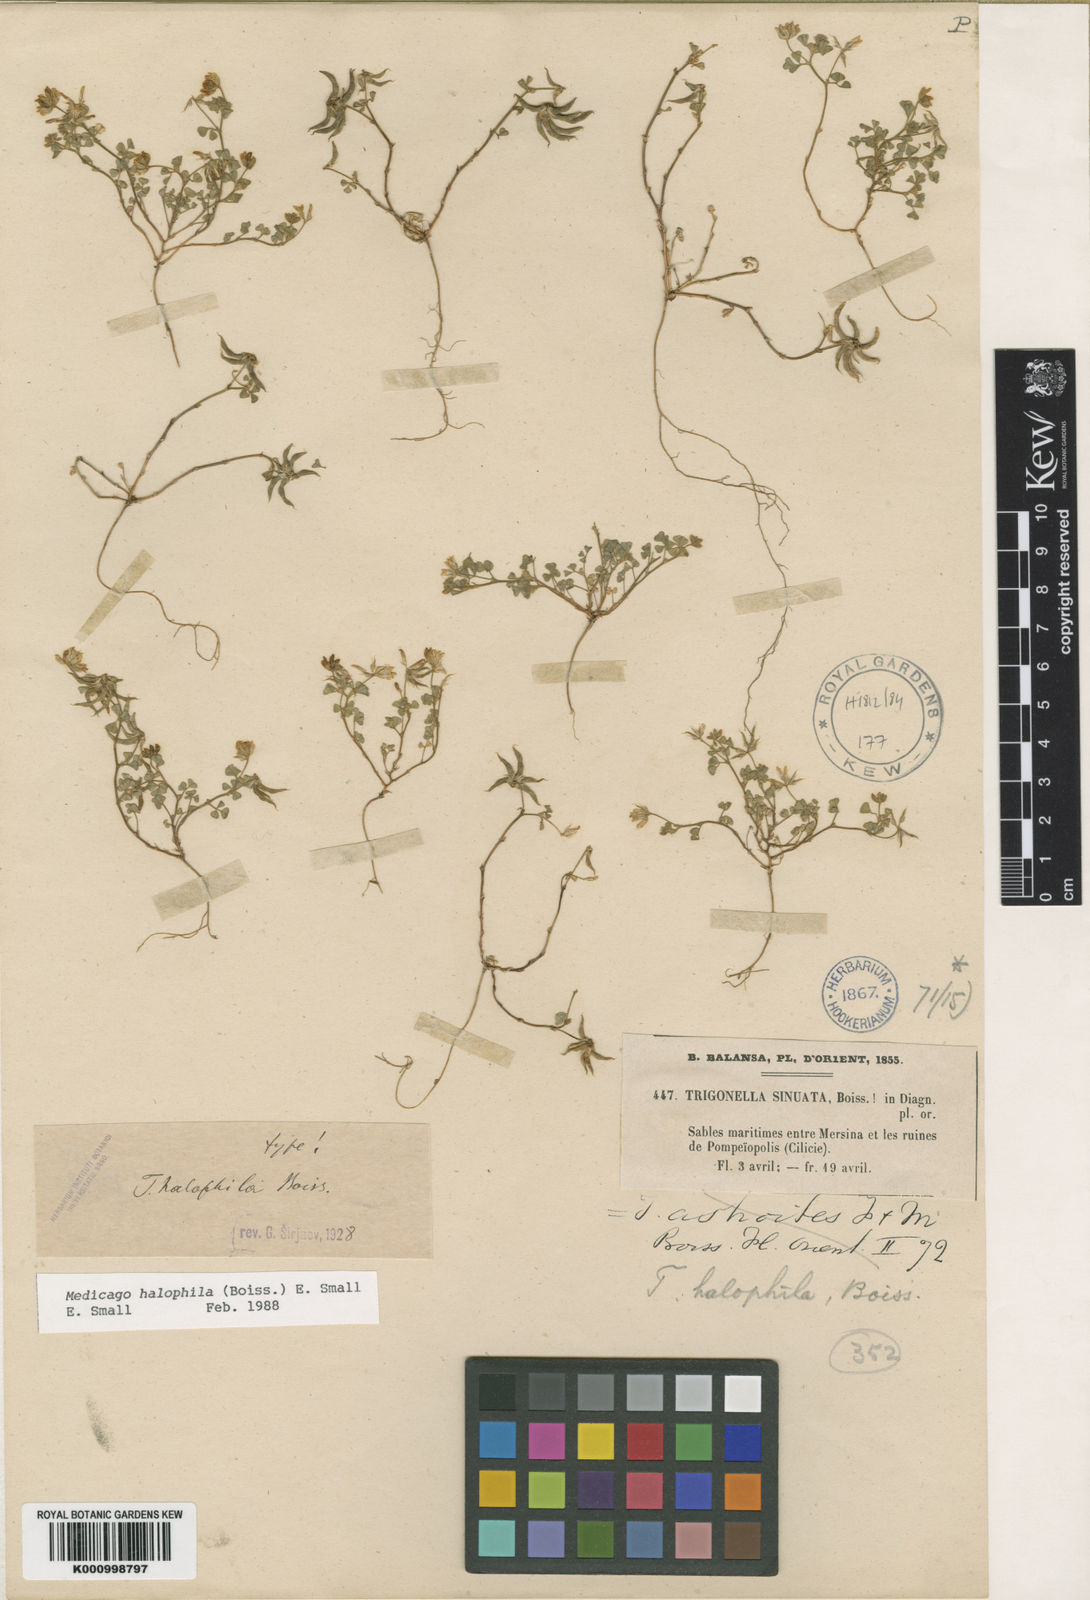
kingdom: Plantae
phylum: Tracheophyta
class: Magnoliopsida
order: Fabales
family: Fabaceae
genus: Medicago
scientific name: Medicago halophila
